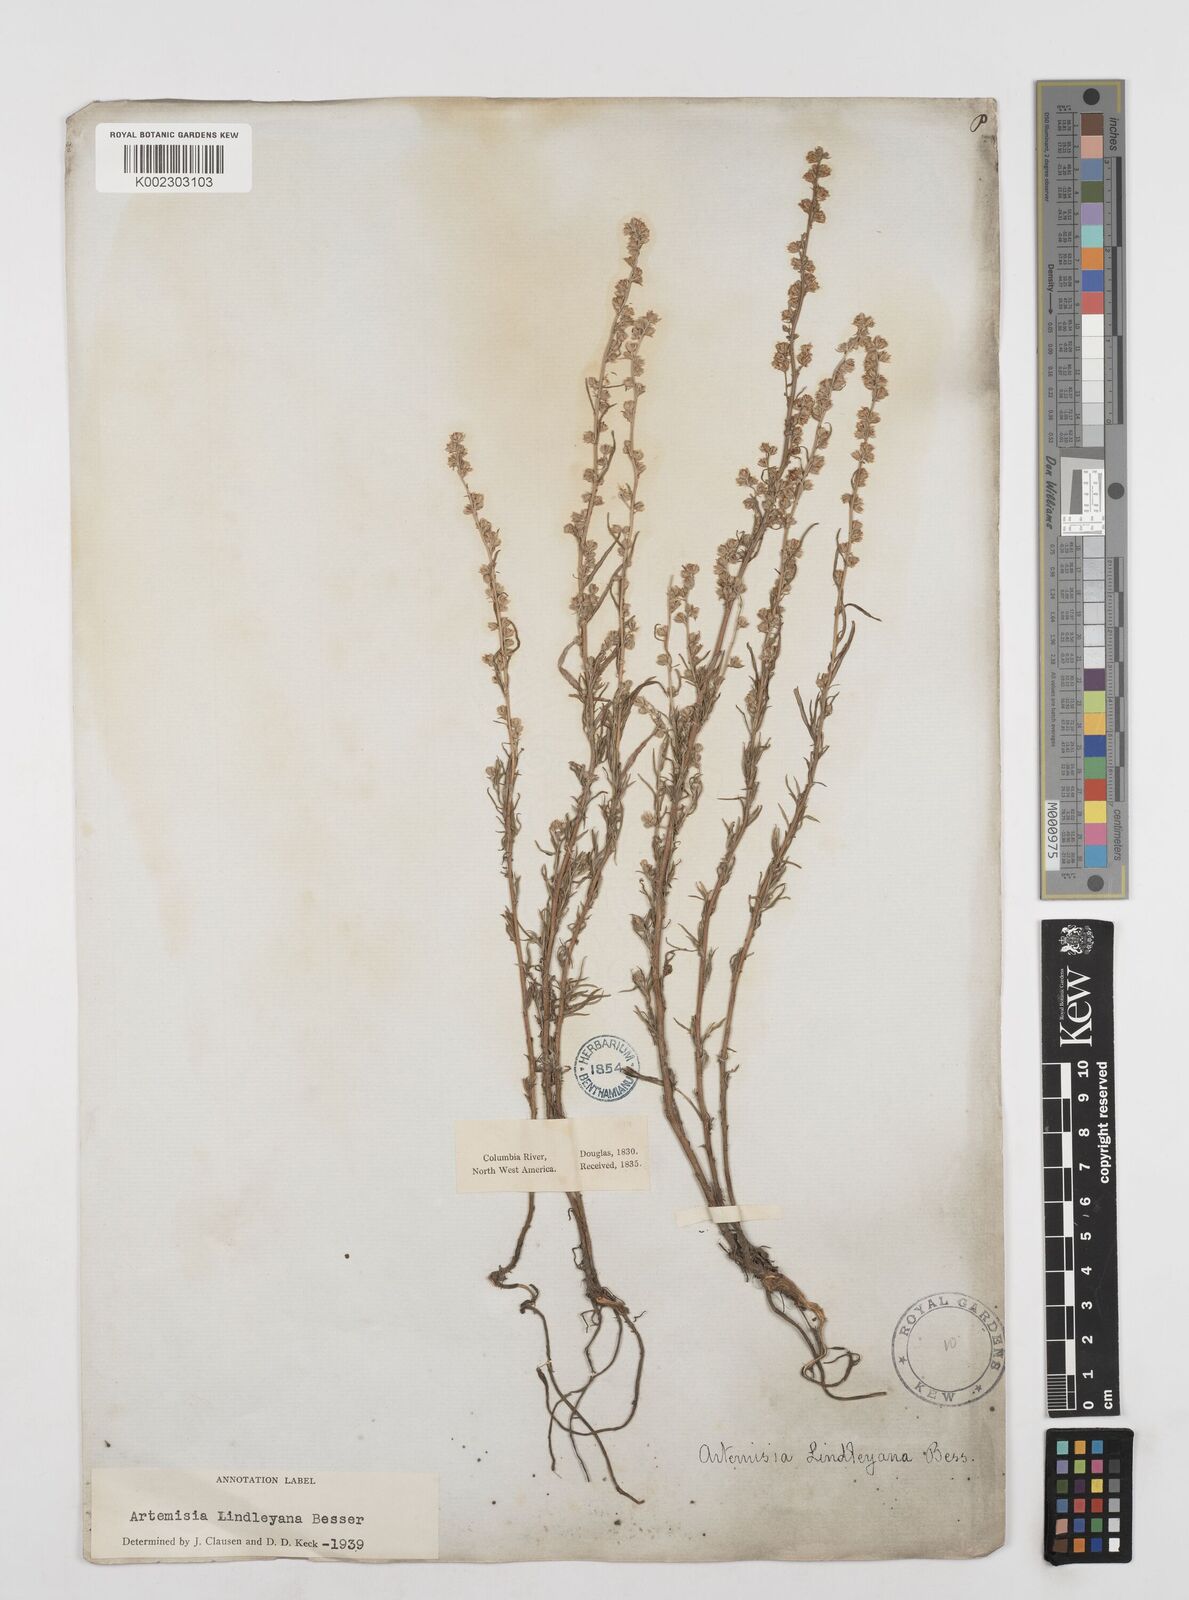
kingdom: Plantae
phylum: Tracheophyta
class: Magnoliopsida
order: Asterales
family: Asteraceae
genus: Artemisia
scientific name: Artemisia ludoviciana
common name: Western mugwort
